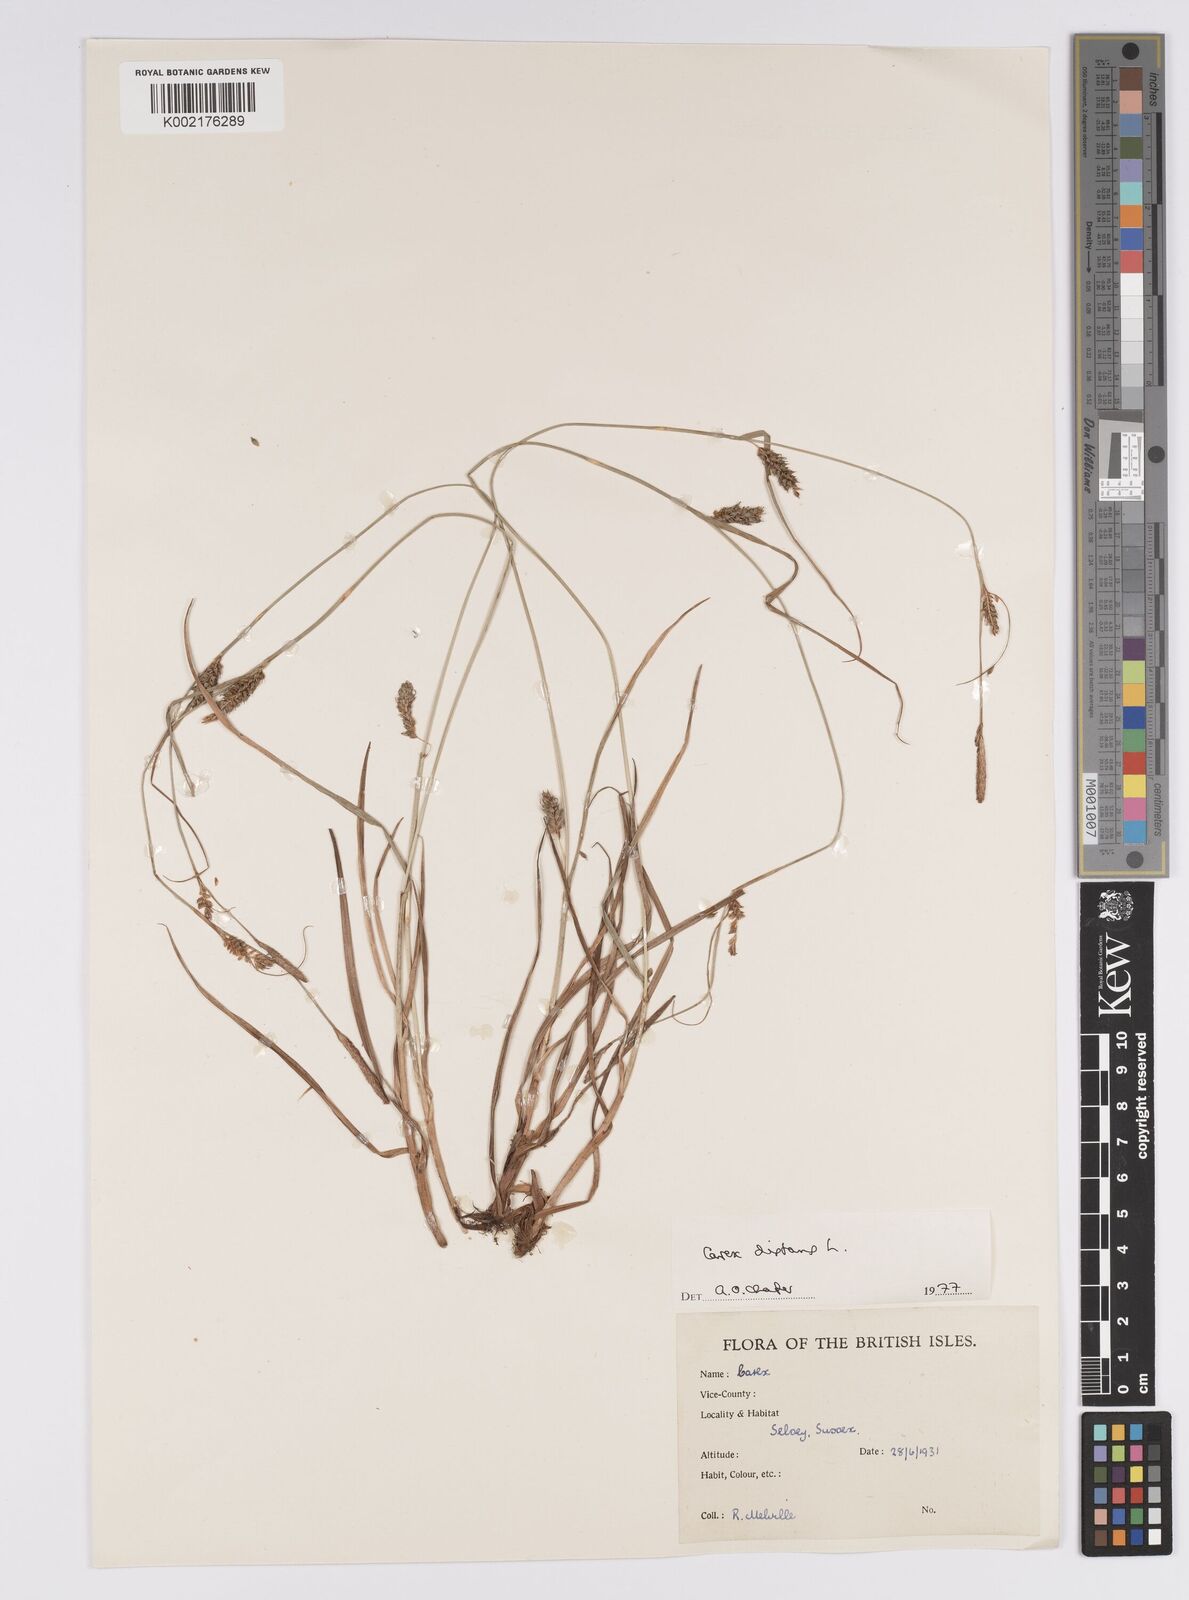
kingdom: Plantae
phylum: Tracheophyta
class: Liliopsida
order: Poales
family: Cyperaceae
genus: Carex
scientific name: Carex distans
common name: Distant sedge
